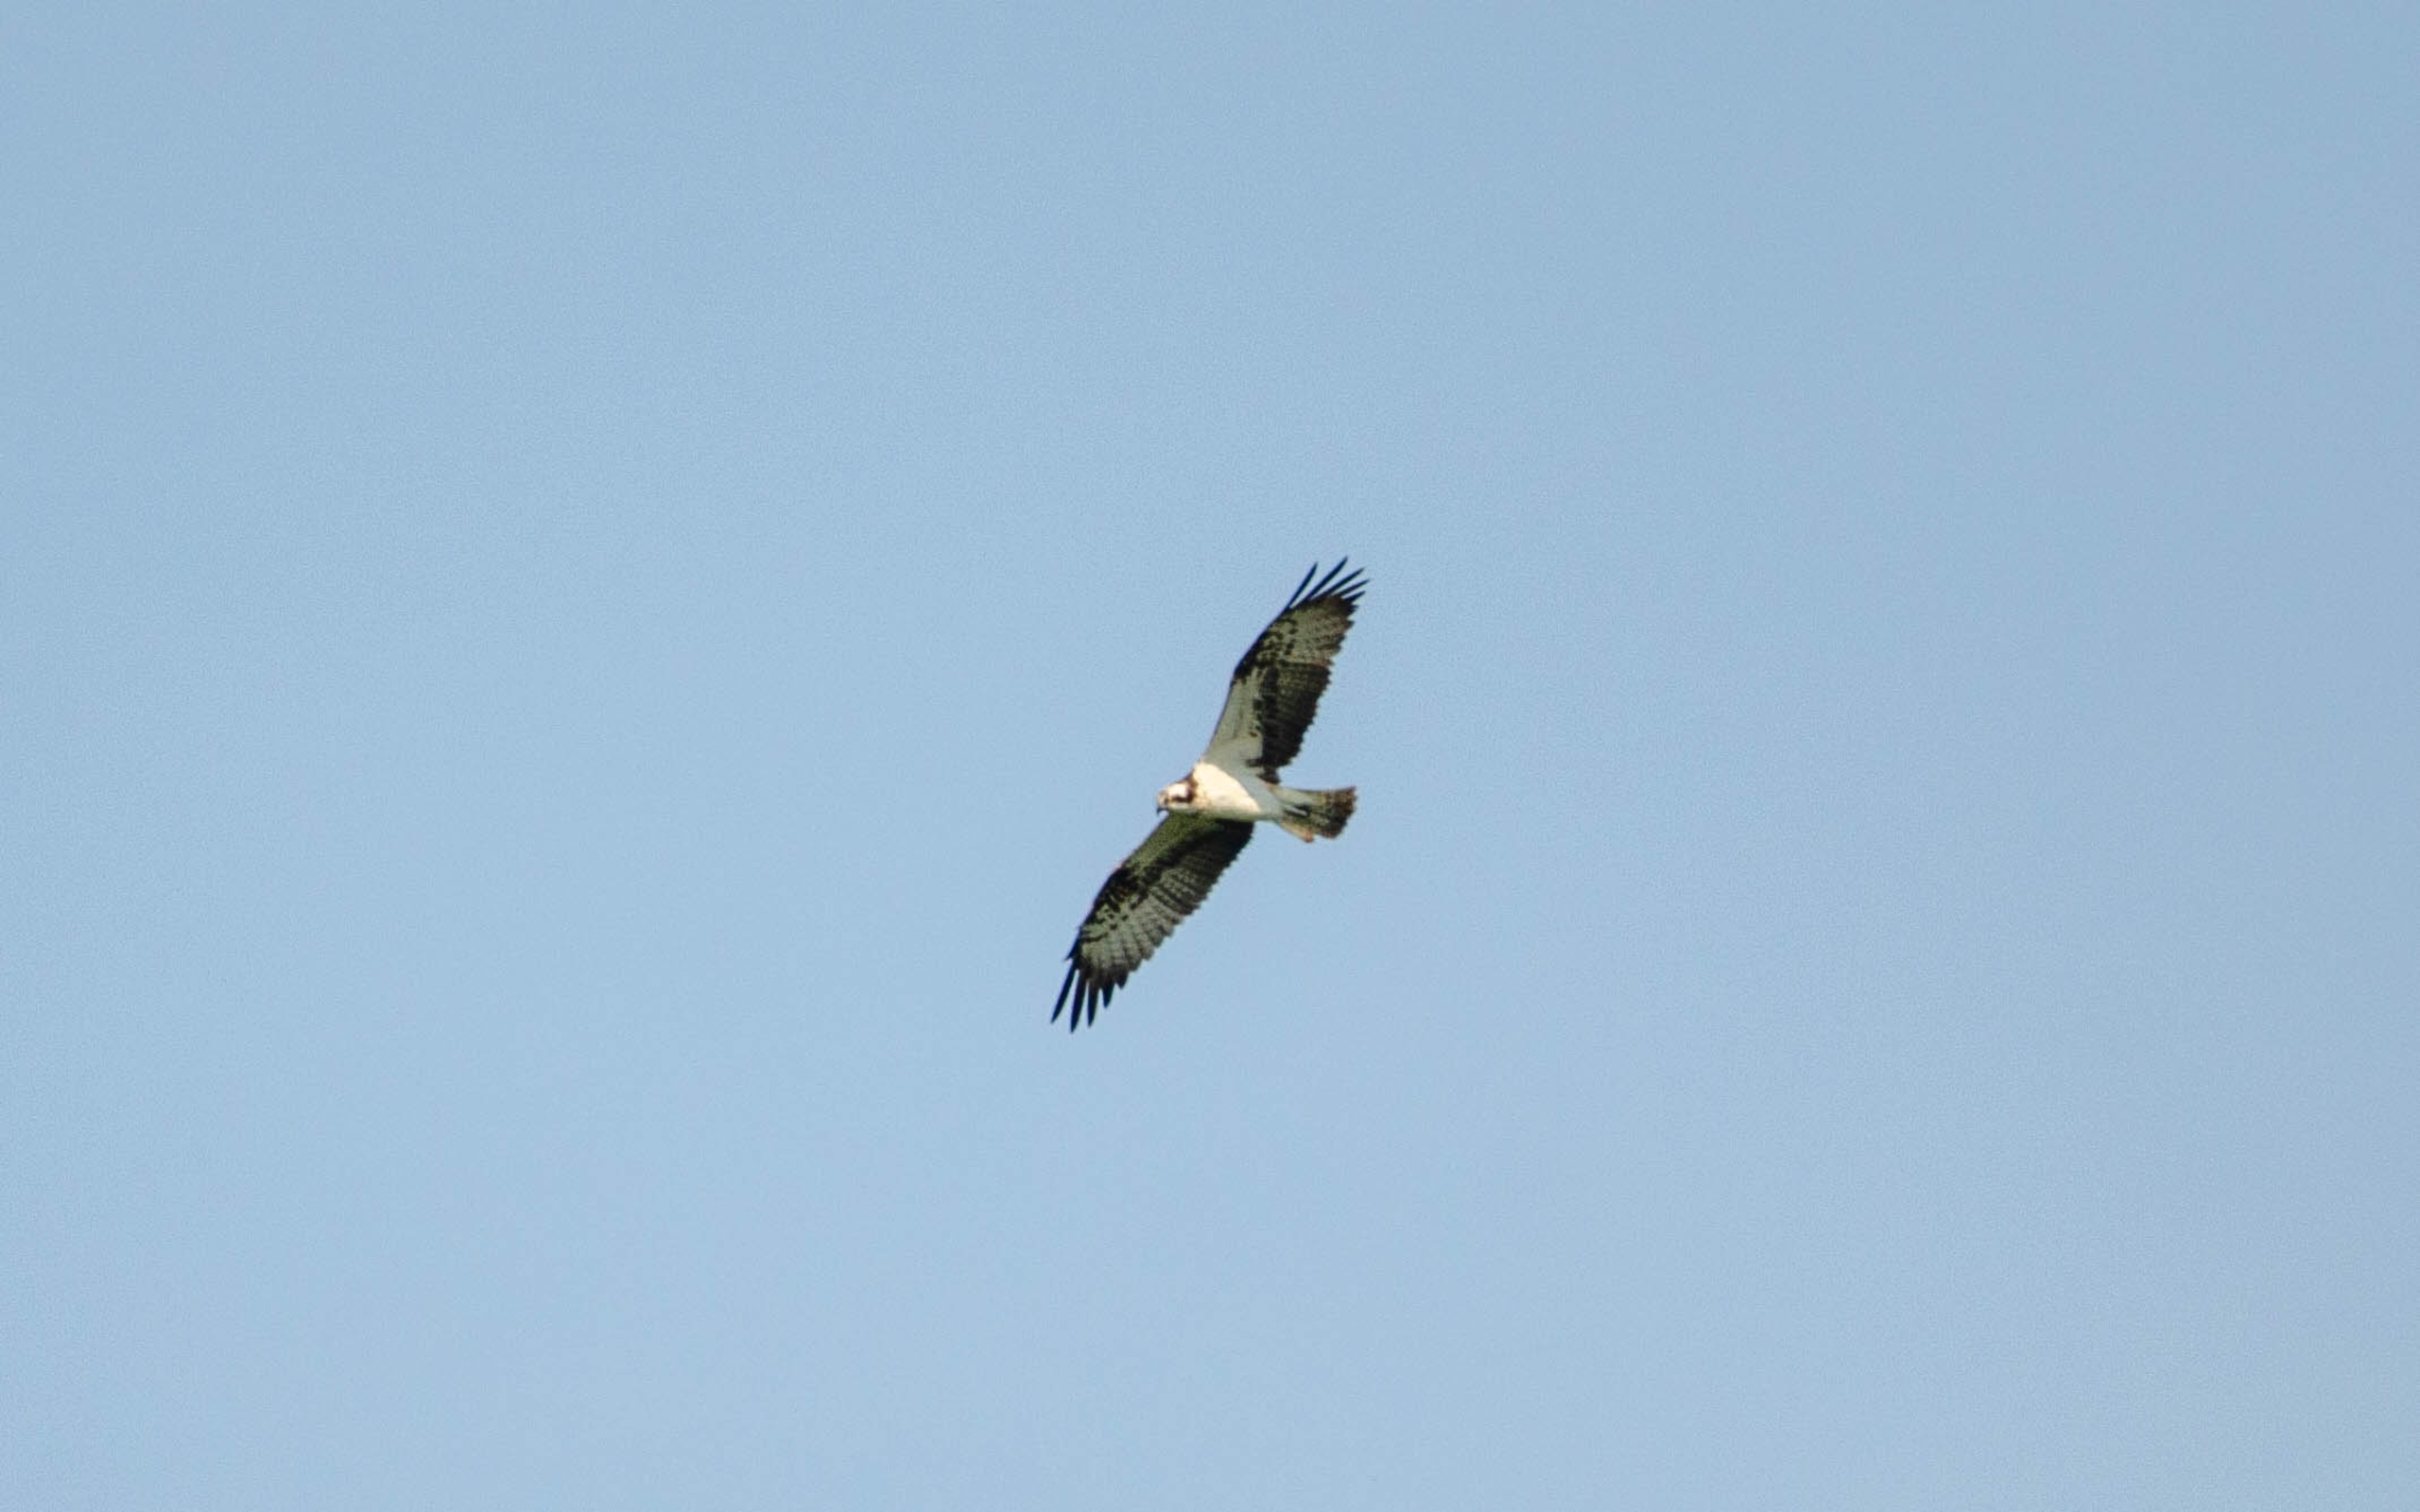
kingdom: Animalia
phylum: Chordata
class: Aves
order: Accipitriformes
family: Pandionidae
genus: Pandion
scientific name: Pandion haliaetus
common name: Fiskeørn
